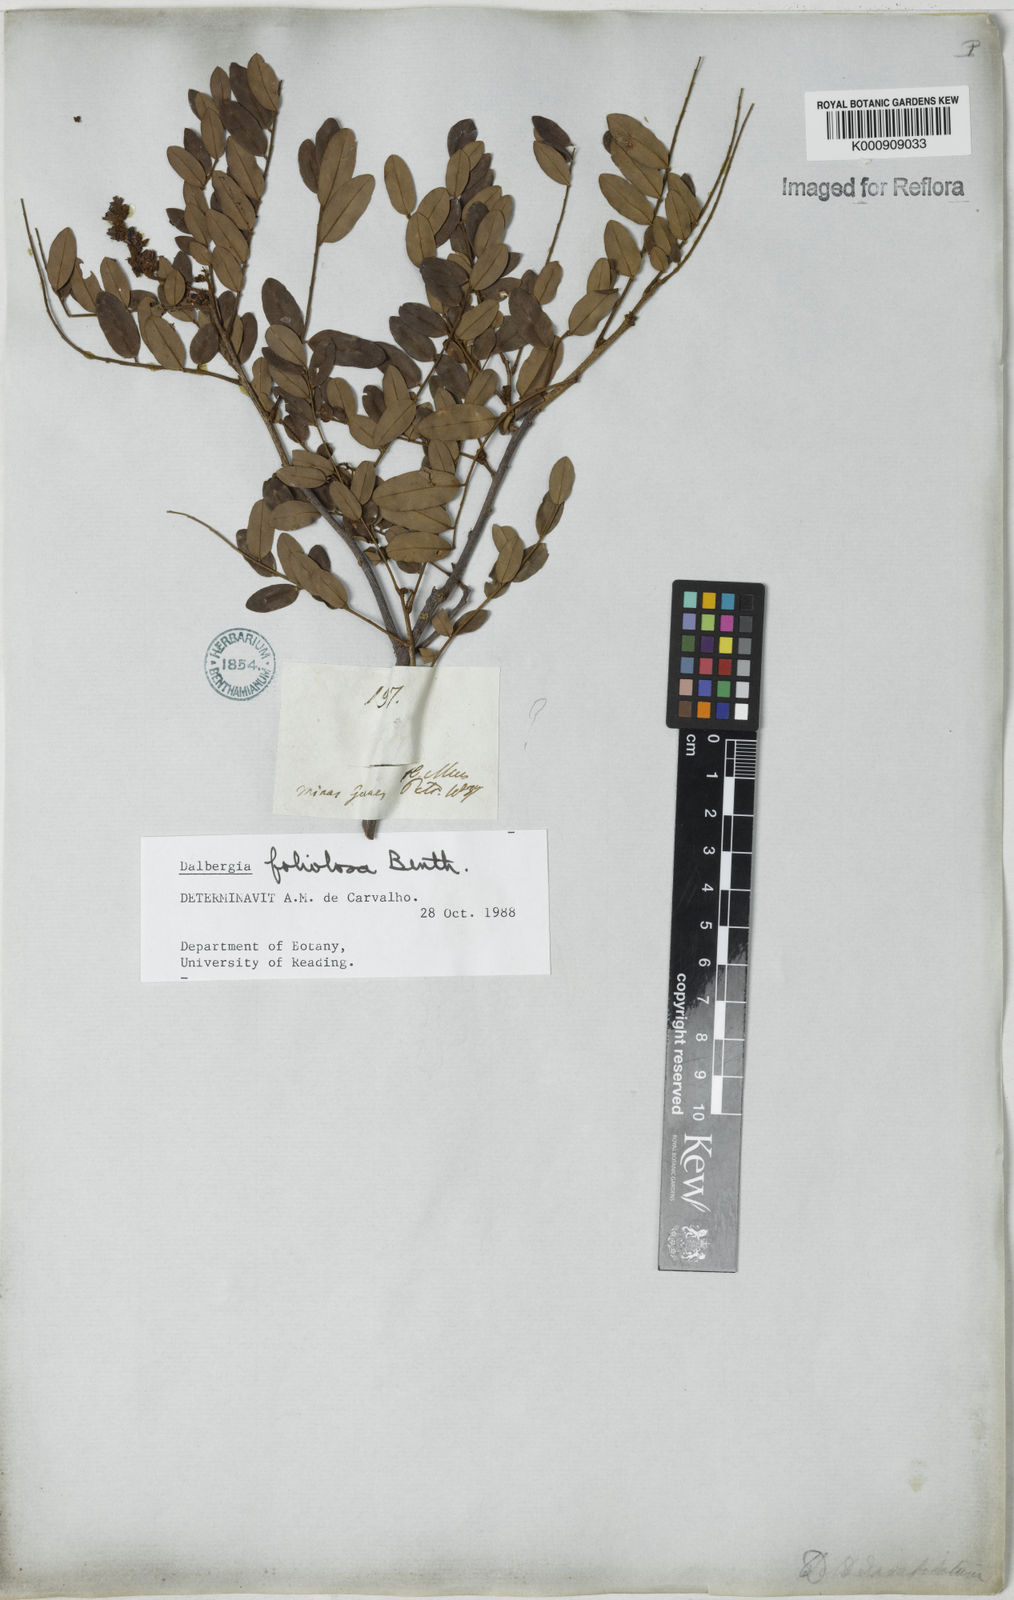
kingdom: Plantae
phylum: Tracheophyta
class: Magnoliopsida
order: Fabales
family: Fabaceae
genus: Dalbergia
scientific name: Dalbergia foliolosa
